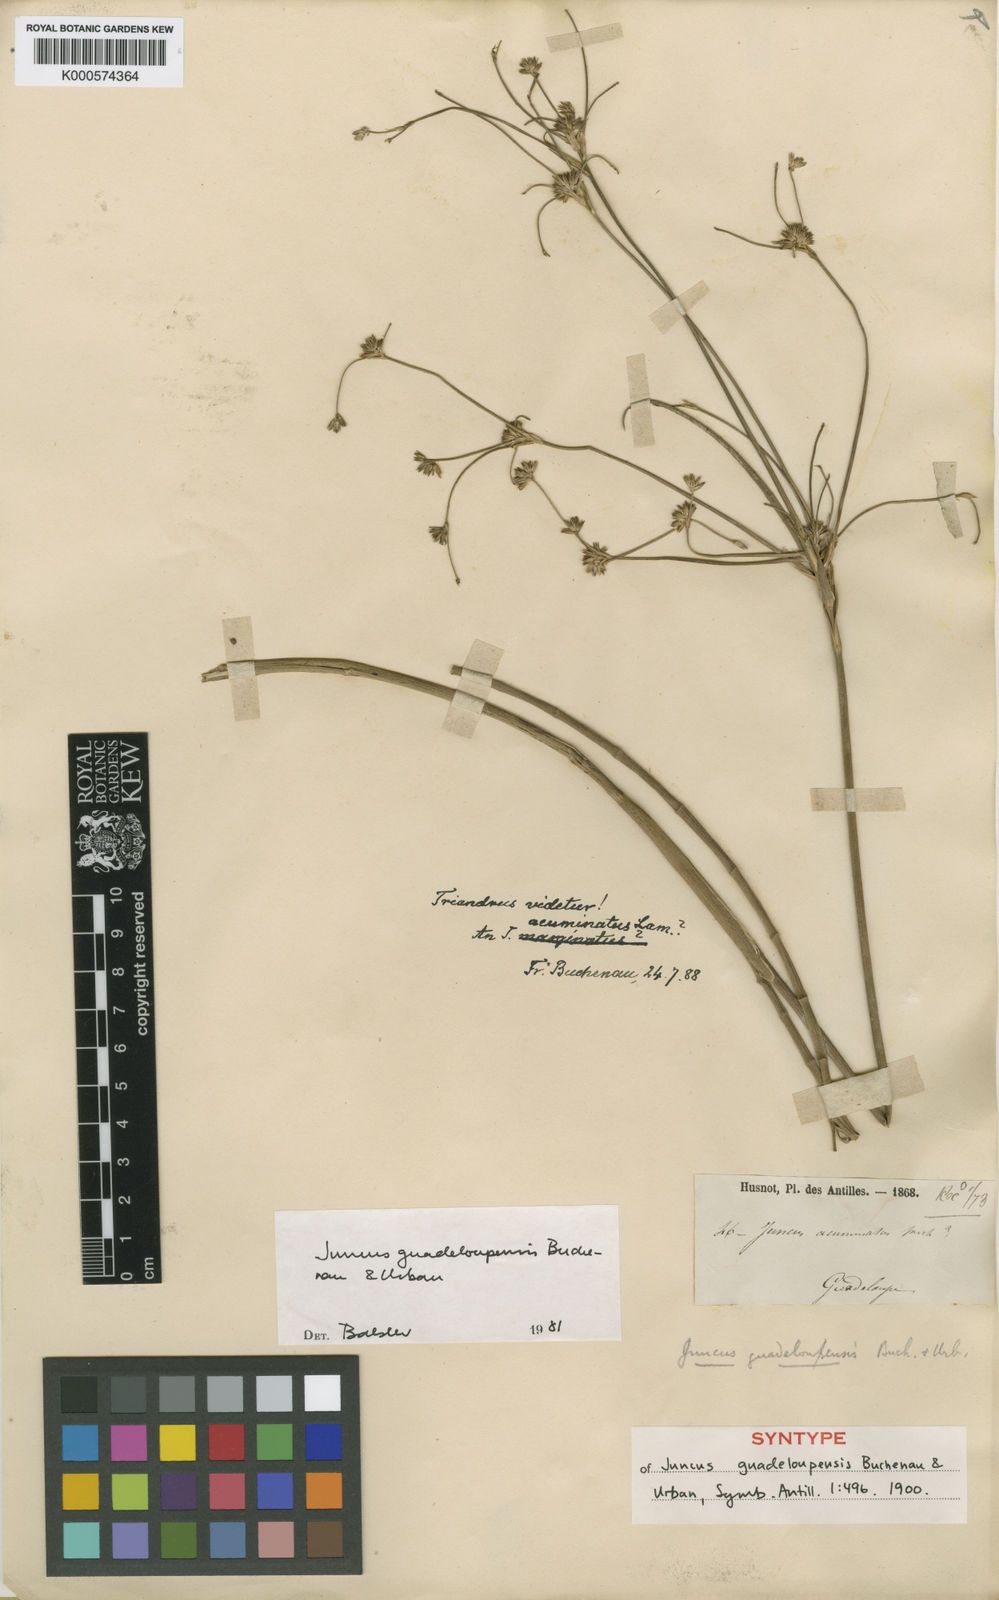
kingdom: Plantae
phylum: Tracheophyta
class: Liliopsida
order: Poales
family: Juncaceae
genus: Juncus
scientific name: Juncus guadeloupensis
